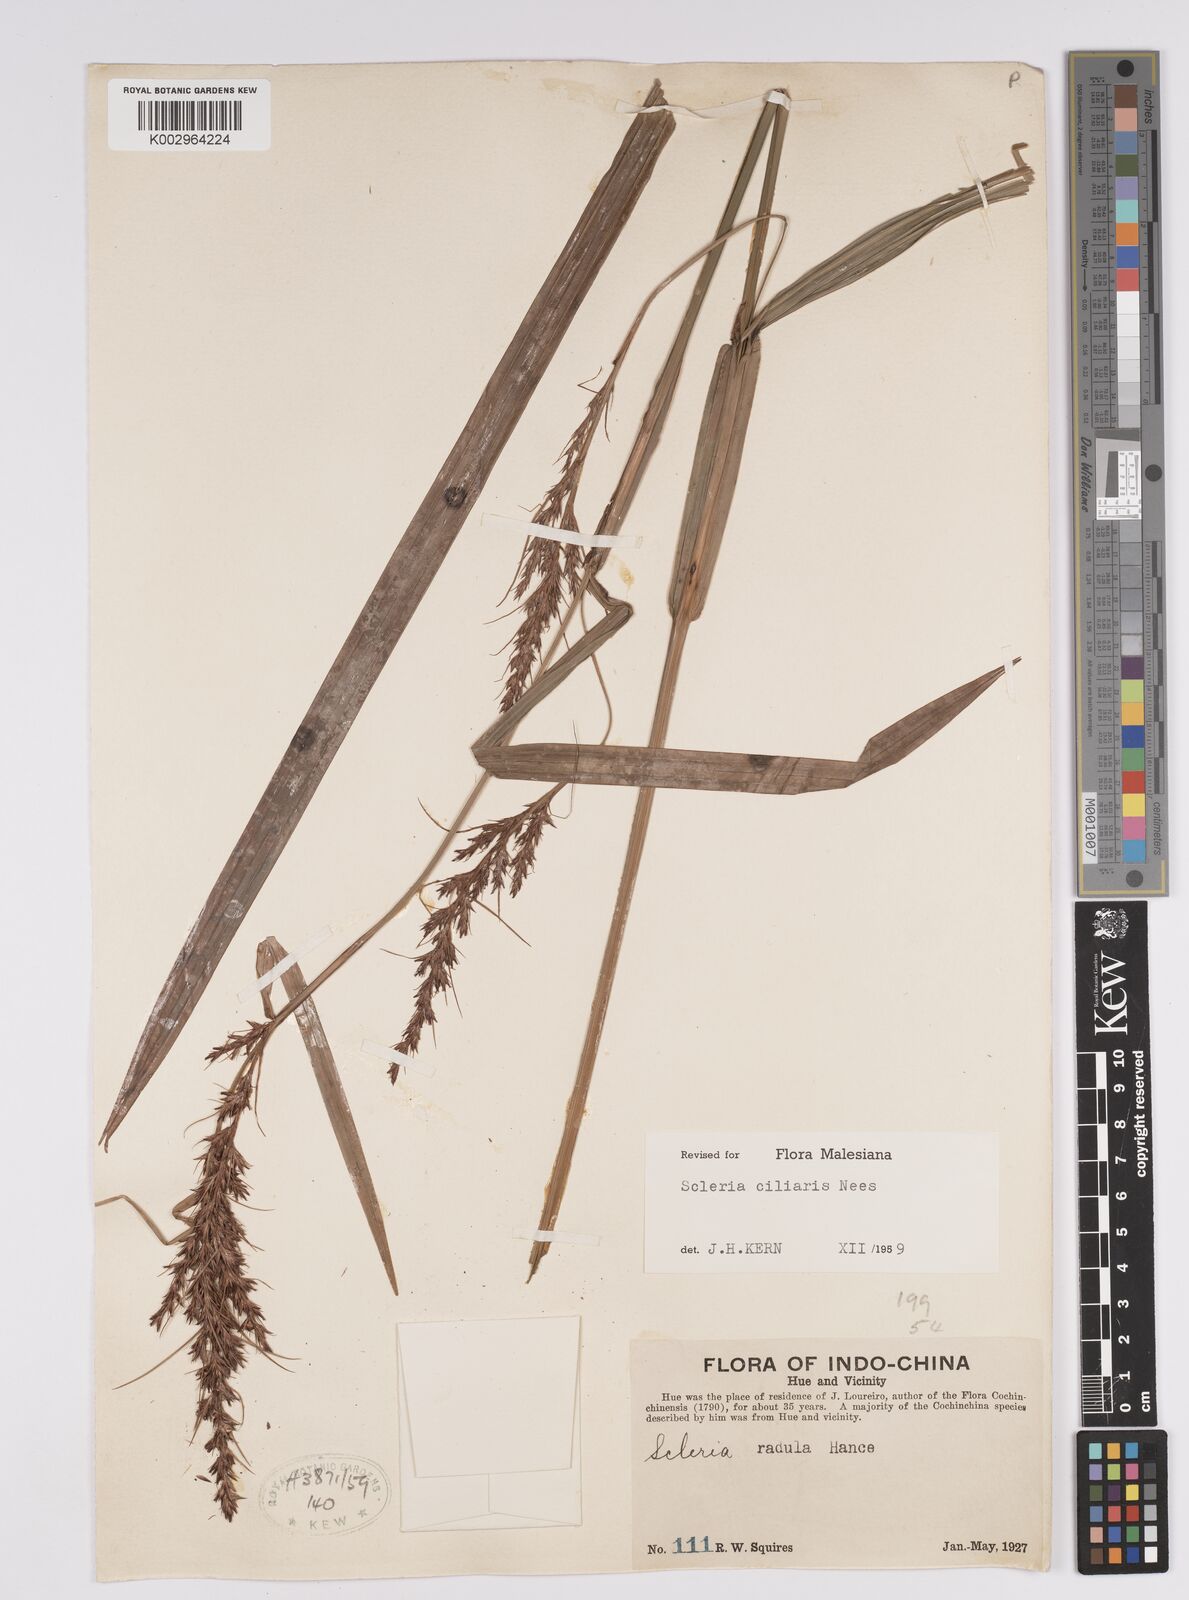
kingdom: Plantae
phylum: Tracheophyta
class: Liliopsida
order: Poales
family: Cyperaceae
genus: Scleria
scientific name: Scleria ciliaris
